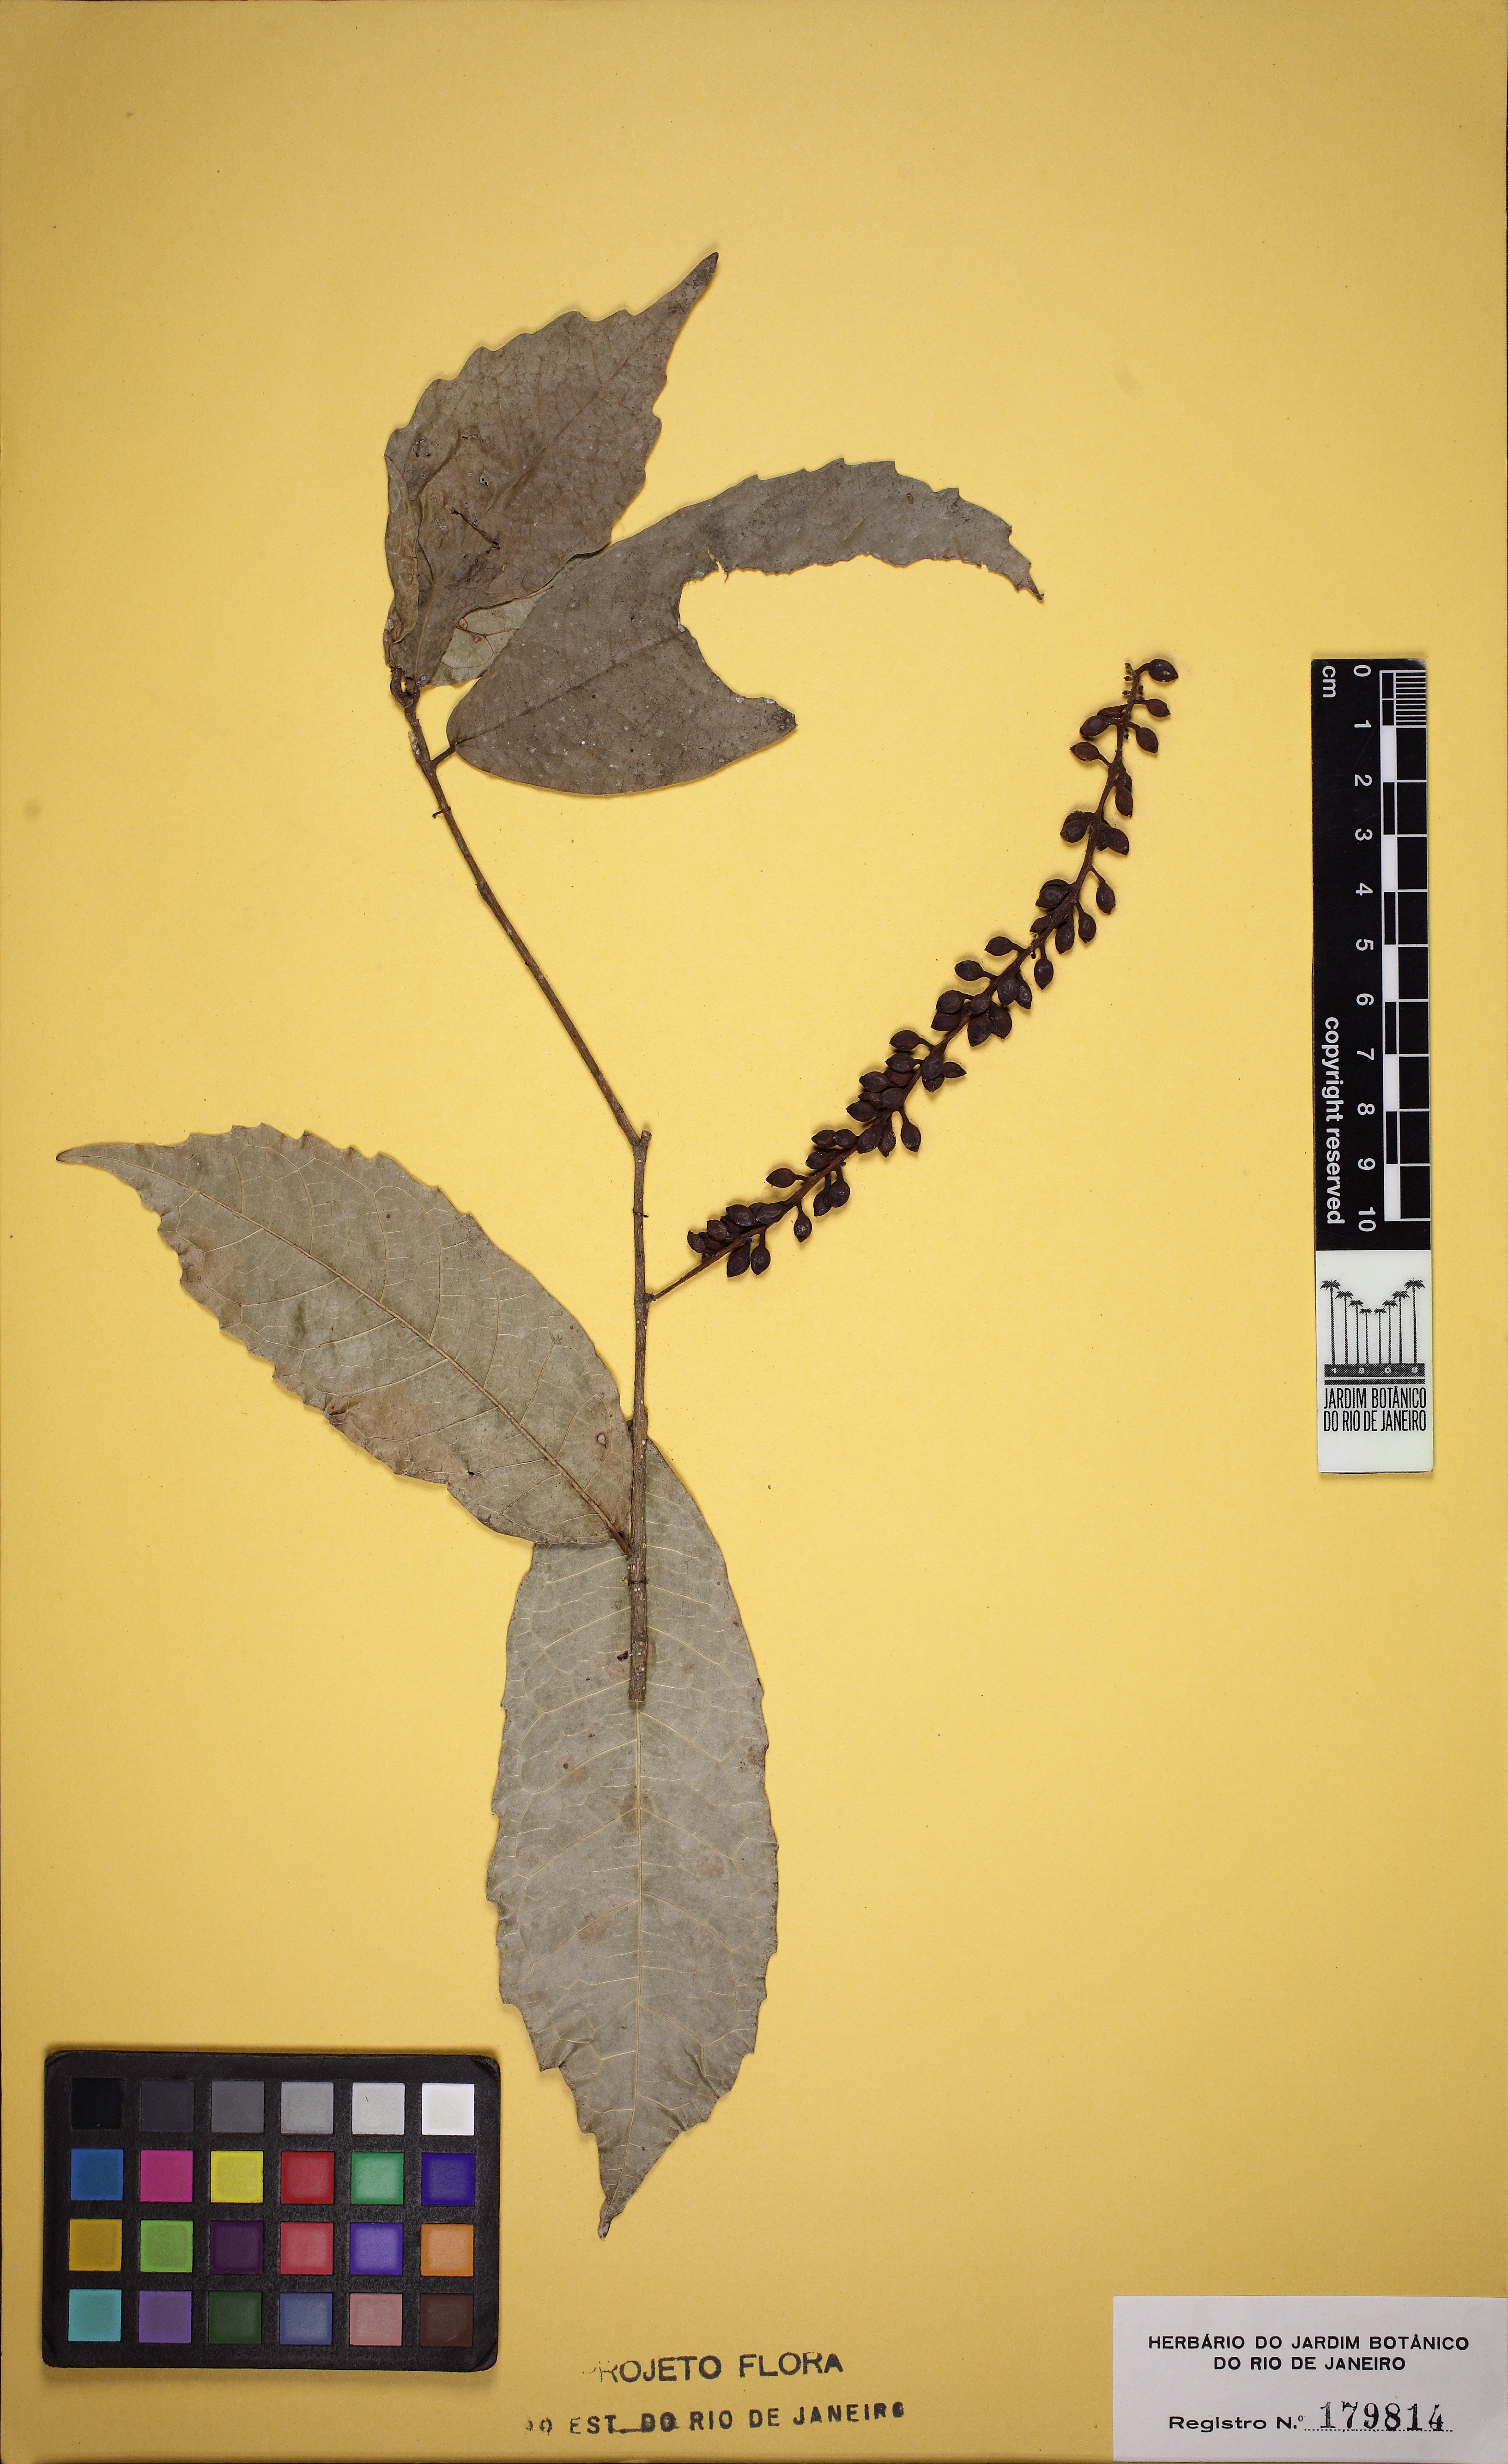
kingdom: Plantae
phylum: Tracheophyta
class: Magnoliopsida
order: Rosales
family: Moraceae
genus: Sorocea
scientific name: Sorocea hilarii
